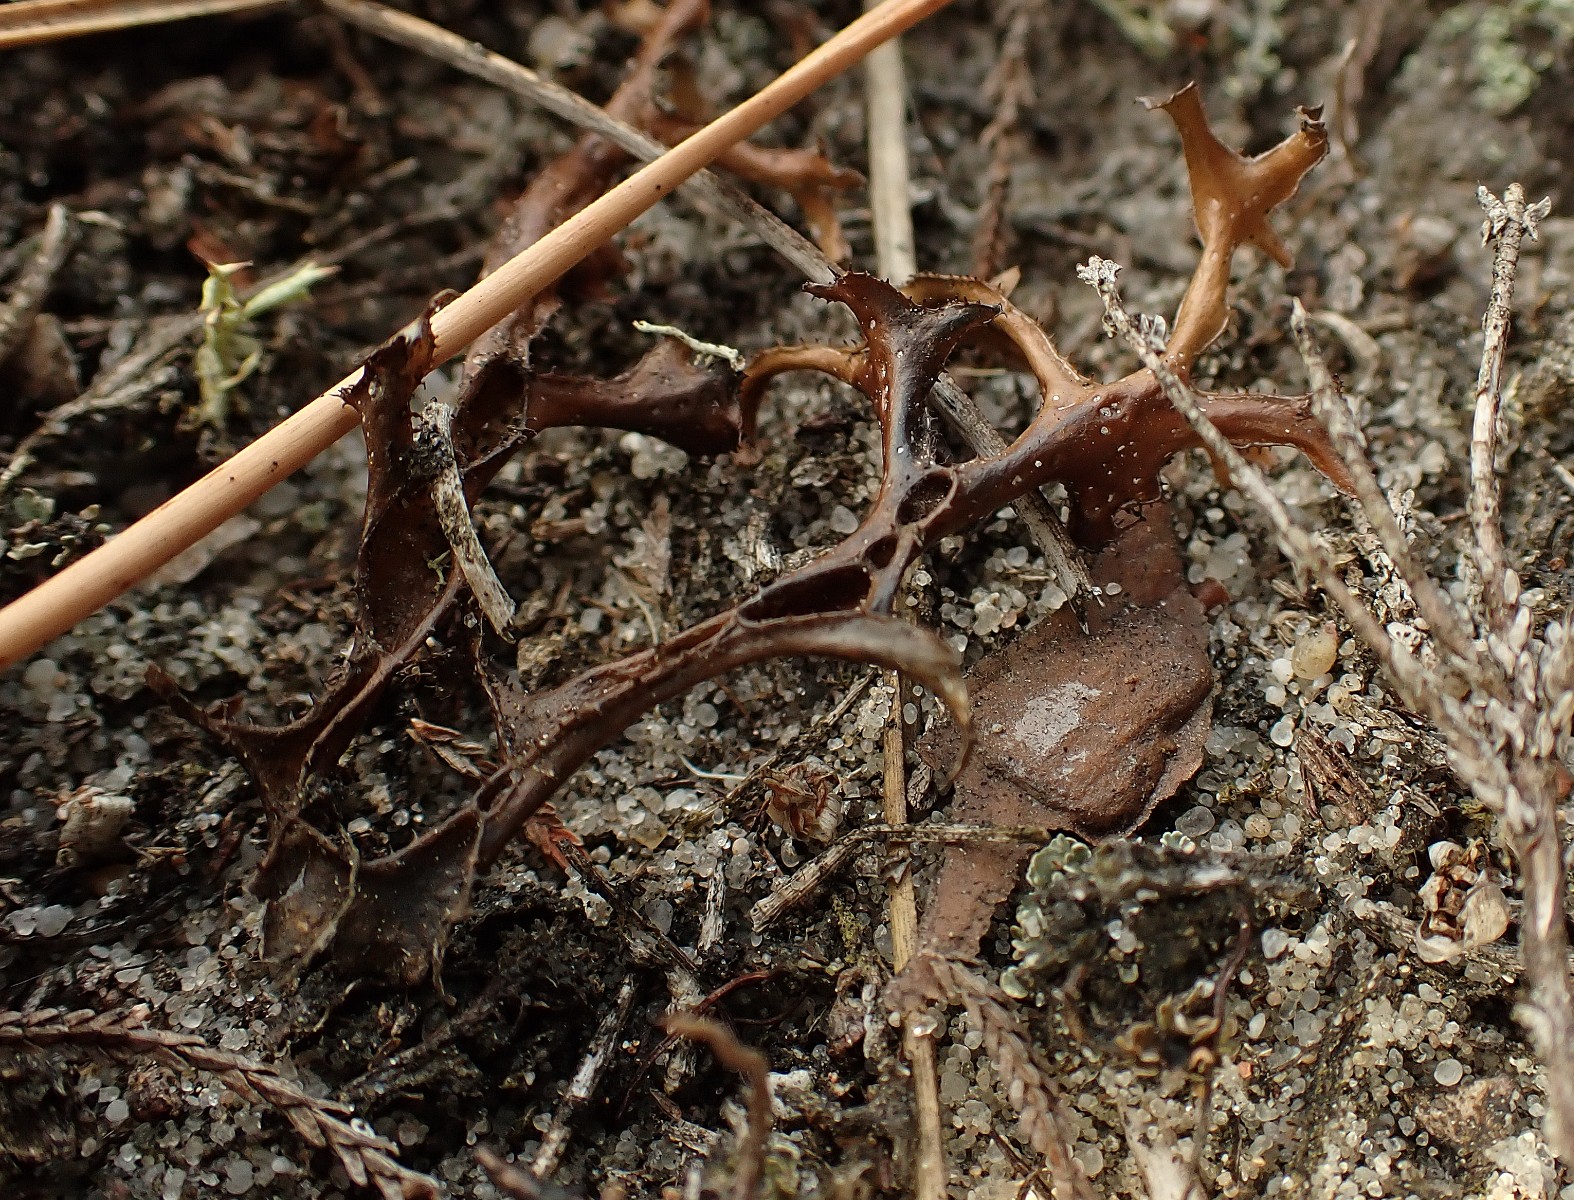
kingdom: Fungi
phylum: Ascomycota
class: Lecanoromycetes
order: Lecanorales
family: Parmeliaceae
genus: Cetraria
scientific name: Cetraria islandica
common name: islandsk kruslav
